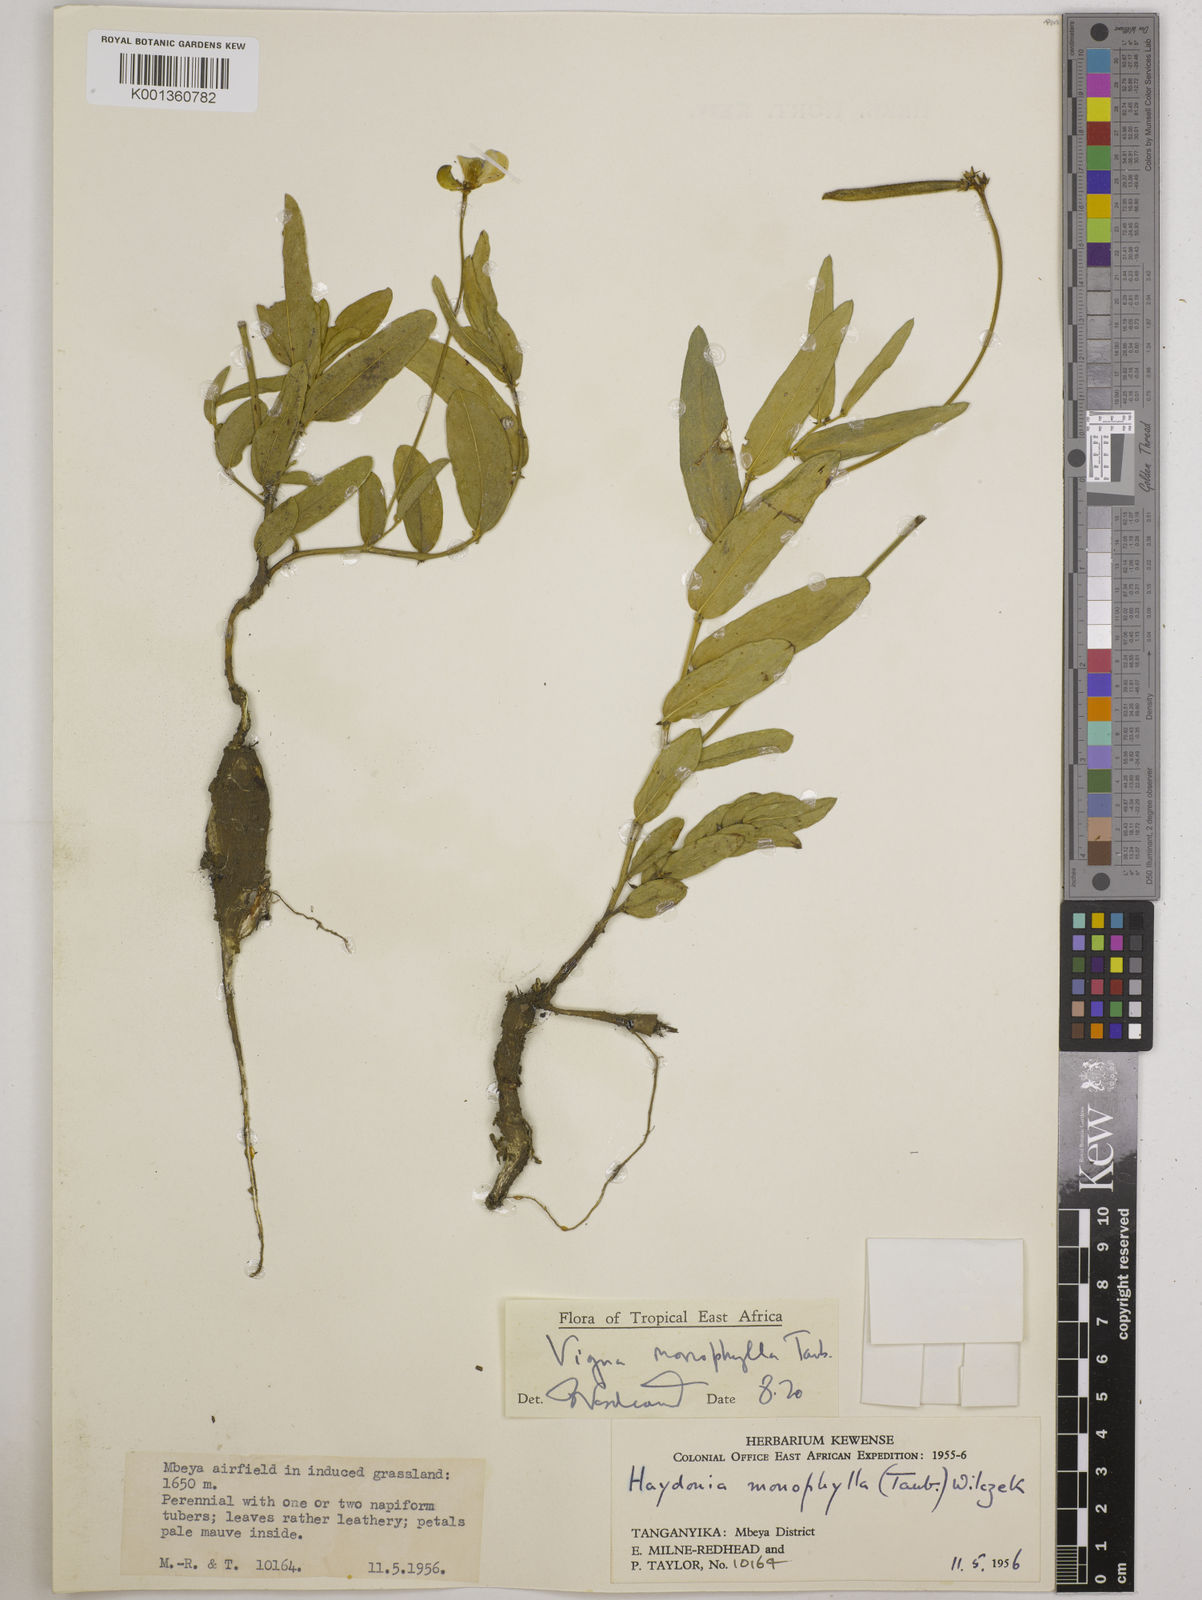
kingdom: Plantae
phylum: Tracheophyta
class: Magnoliopsida
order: Fabales
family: Fabaceae
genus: Vigna
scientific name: Vigna monophylla
